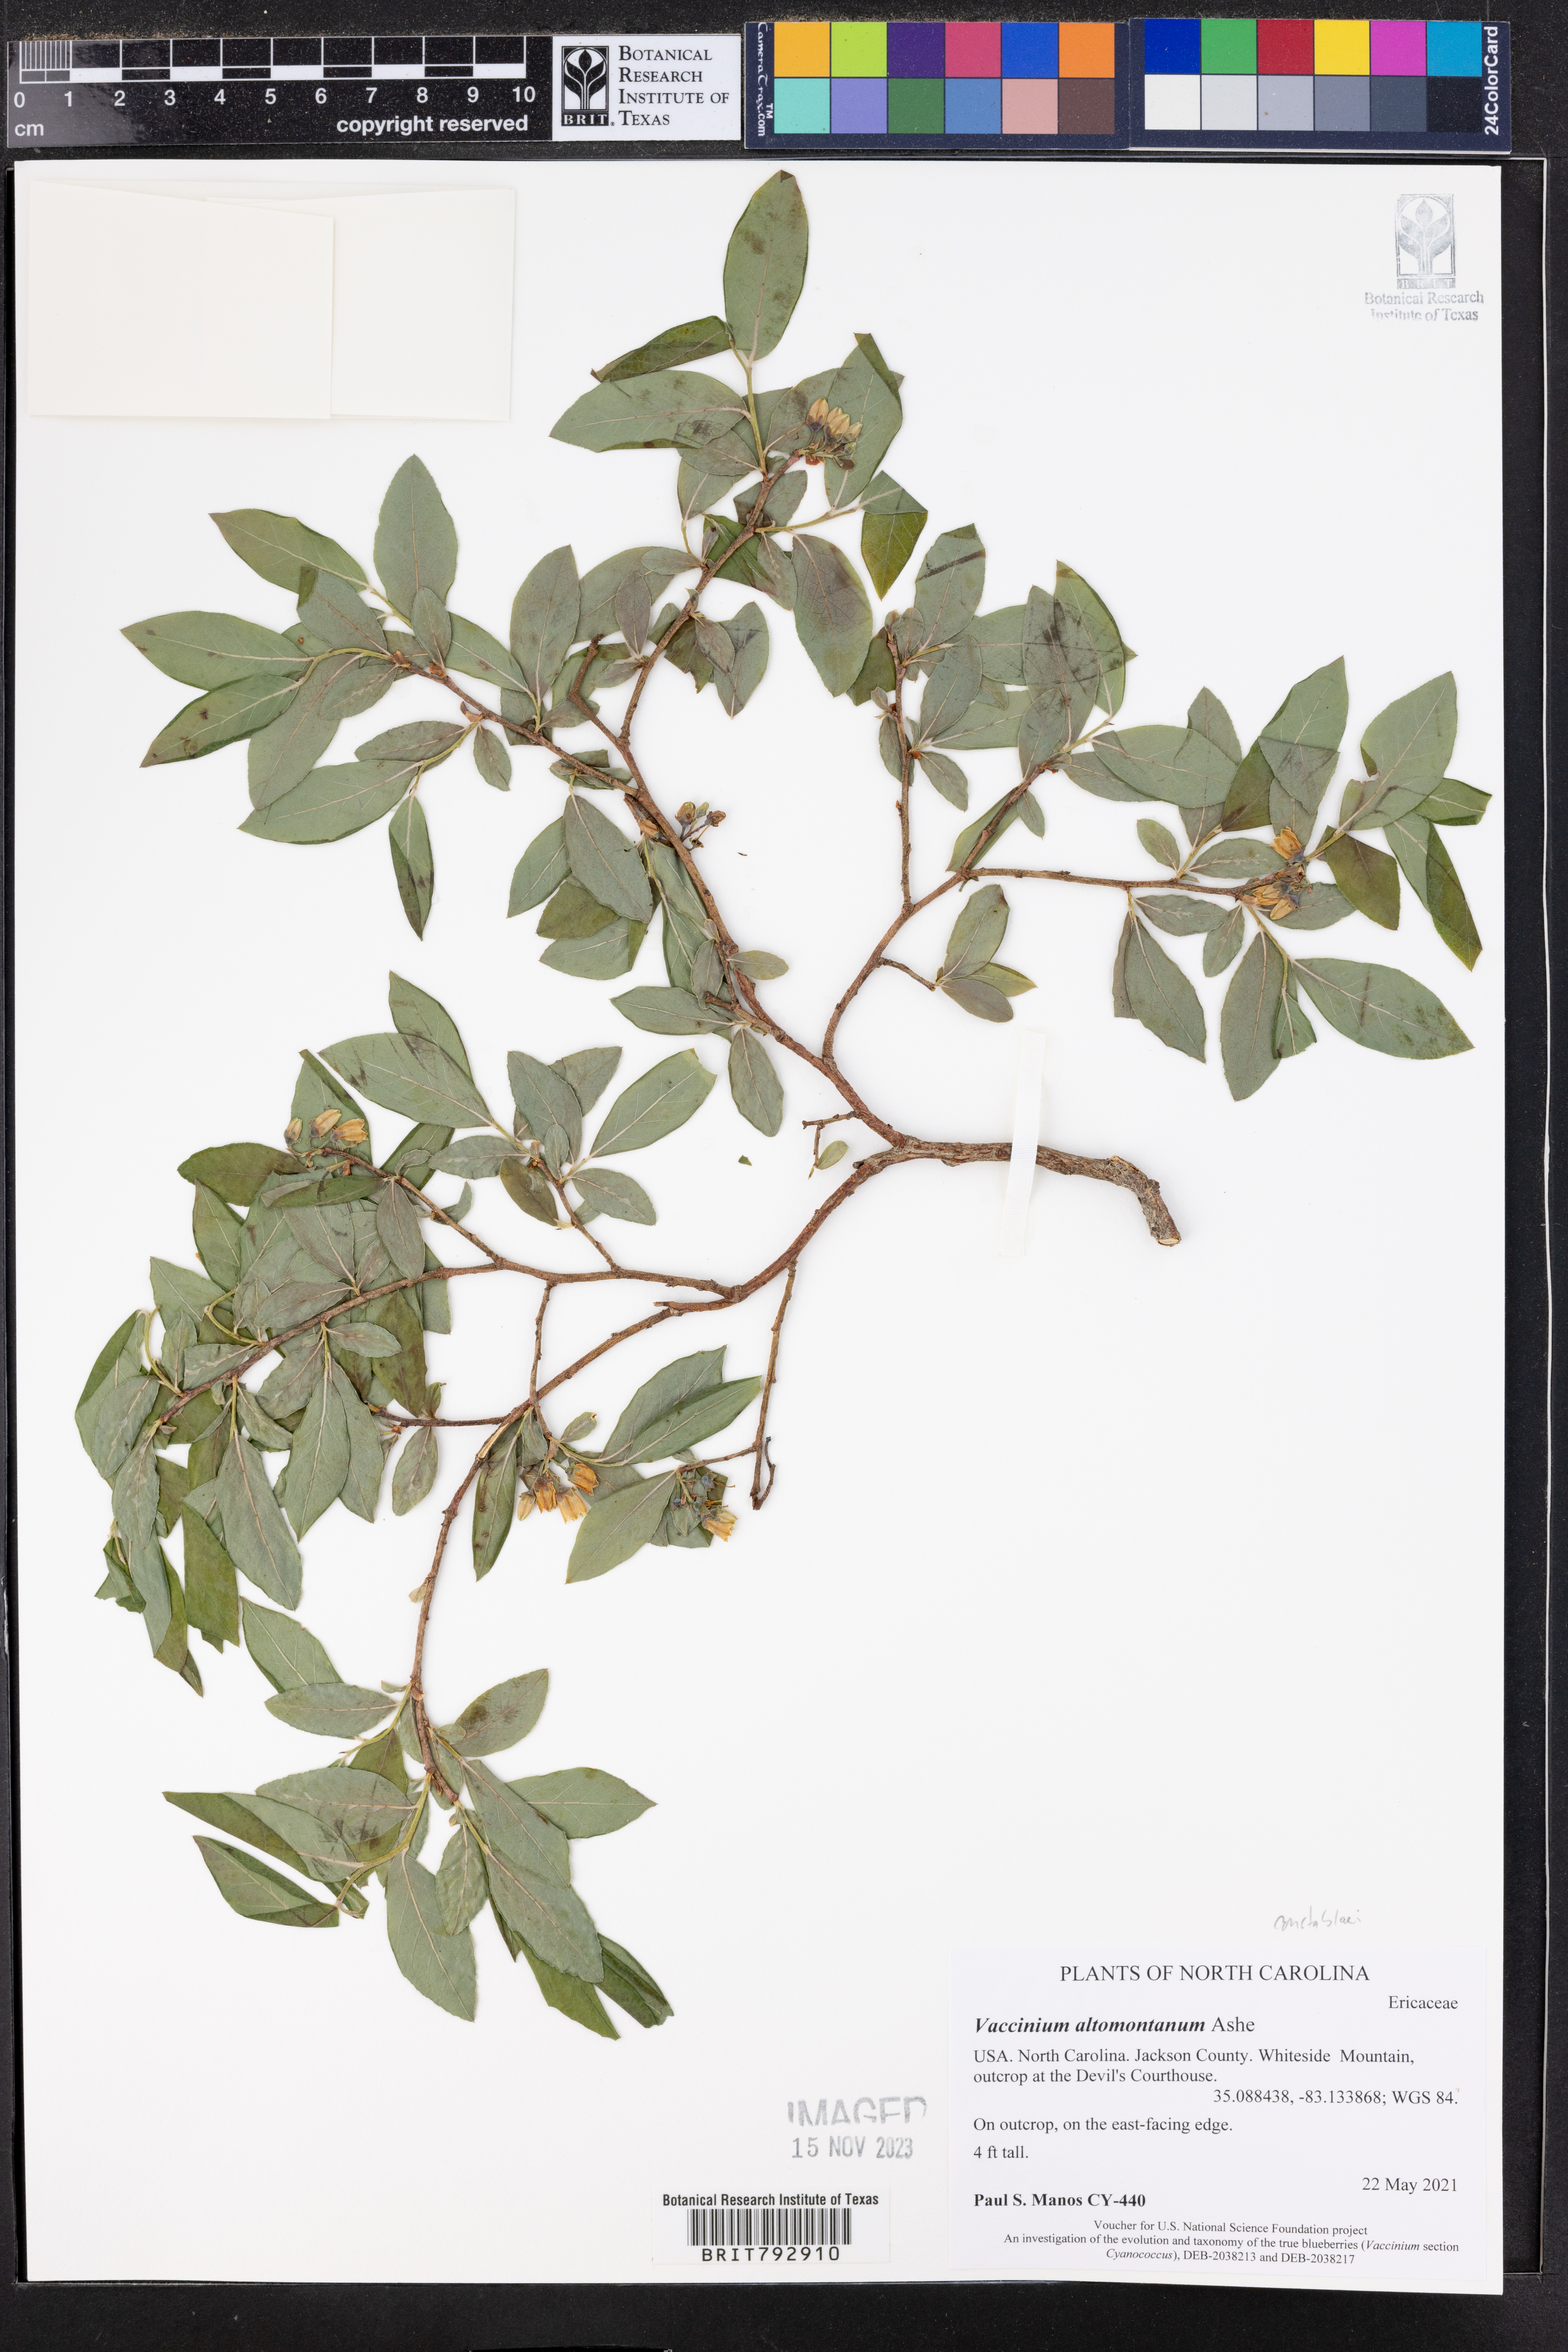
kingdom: Plantae
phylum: Tracheophyta
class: Magnoliopsida
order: Ericales
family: Ericaceae
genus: Vaccinium
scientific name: Vaccinium pallidum
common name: Blue ridge blueberry
